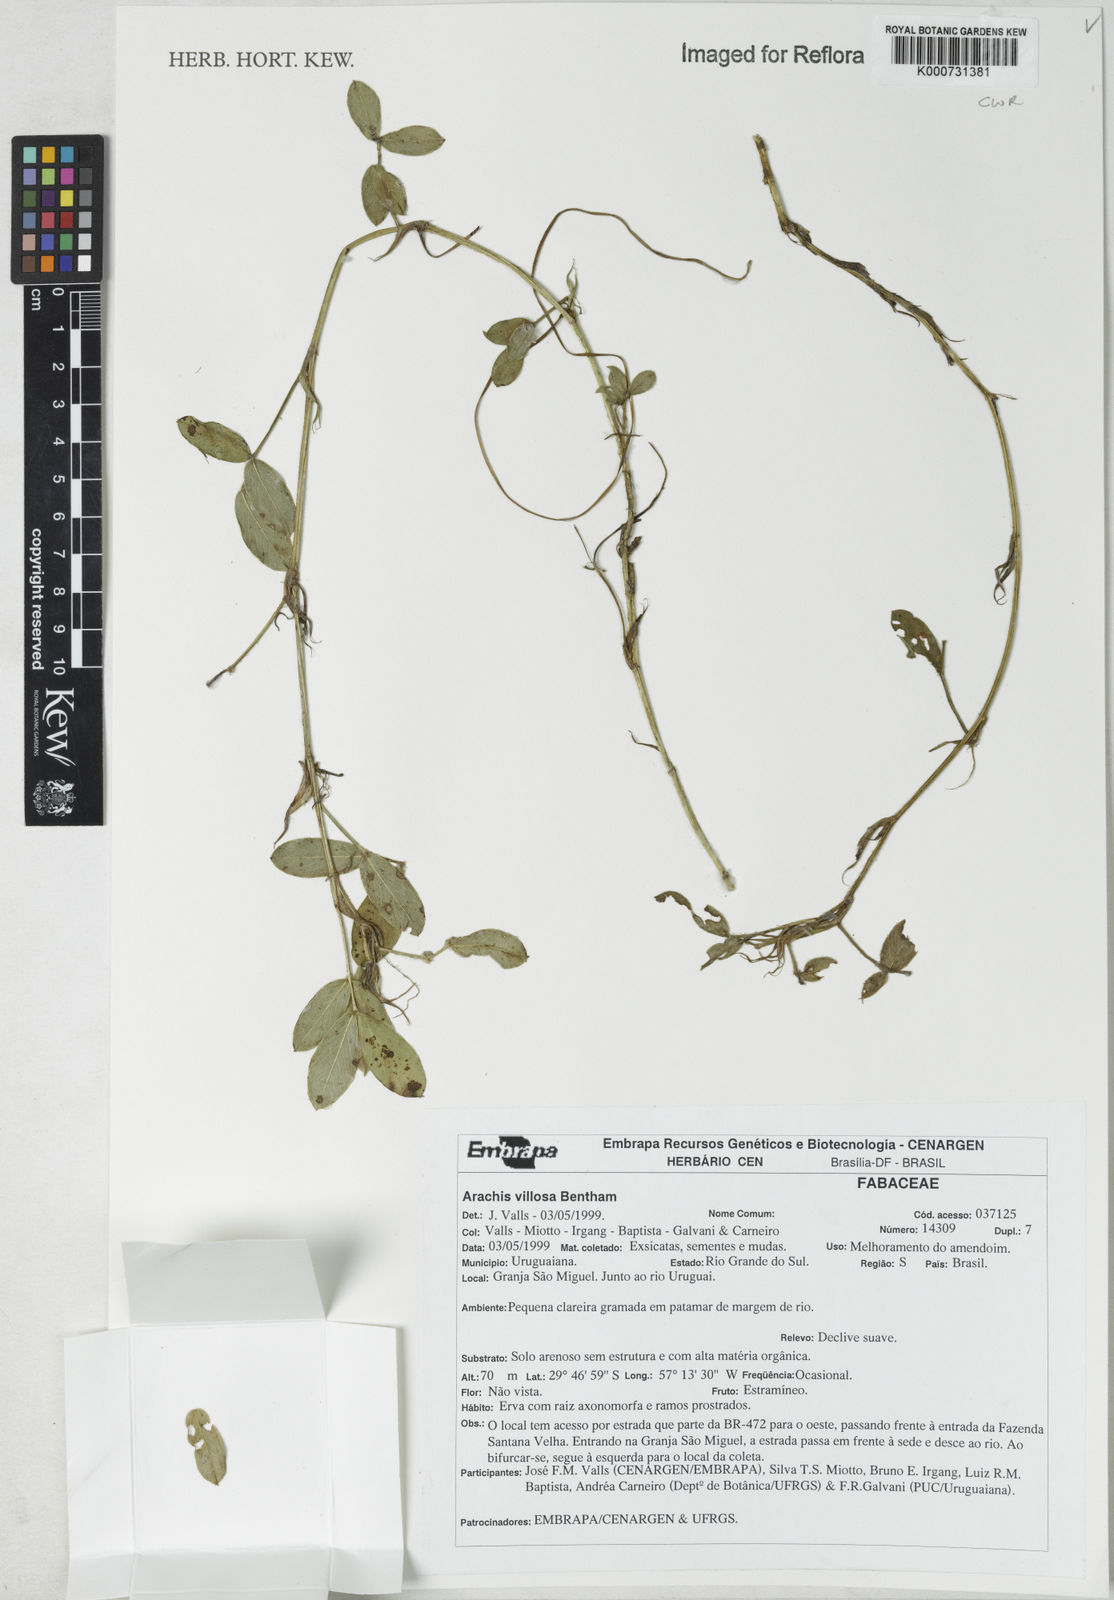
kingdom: Plantae
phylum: Tracheophyta
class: Magnoliopsida
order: Fabales
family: Fabaceae
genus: Arachis
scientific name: Arachis villosa
